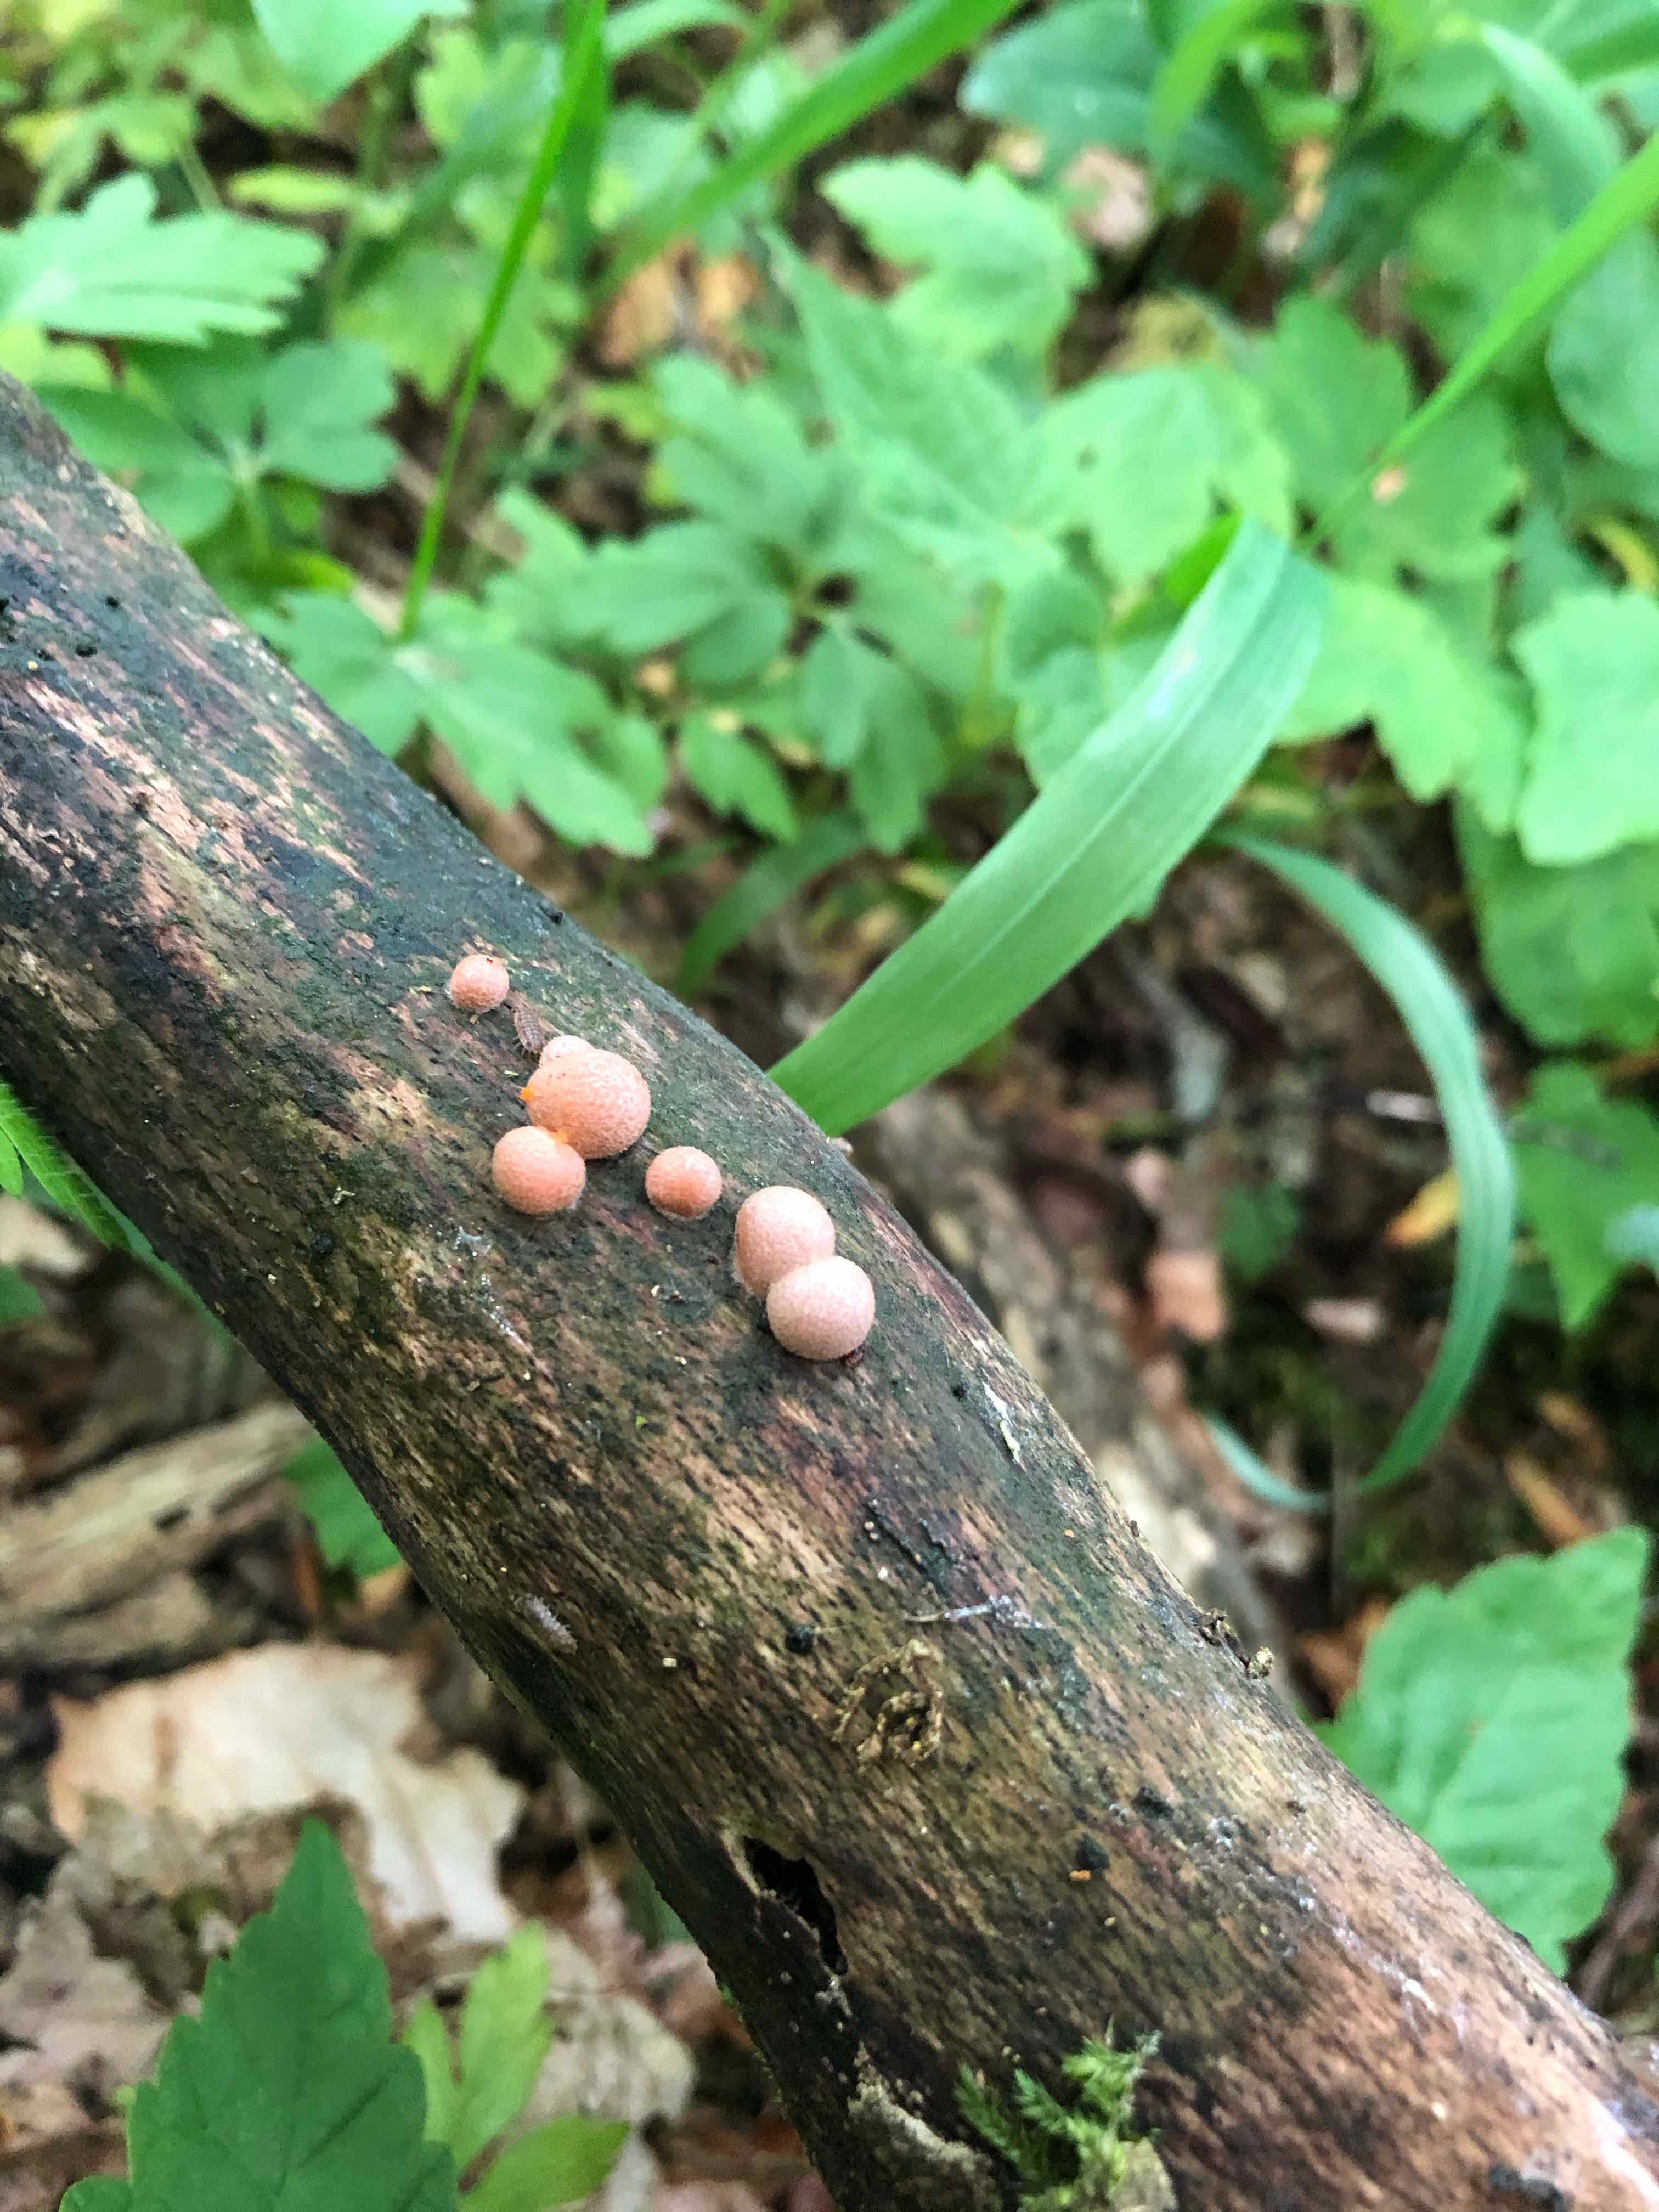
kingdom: Protozoa
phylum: Mycetozoa
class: Myxomycetes
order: Cribrariales
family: Tubiferaceae
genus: Lycogala
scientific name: Lycogala epidendrum
